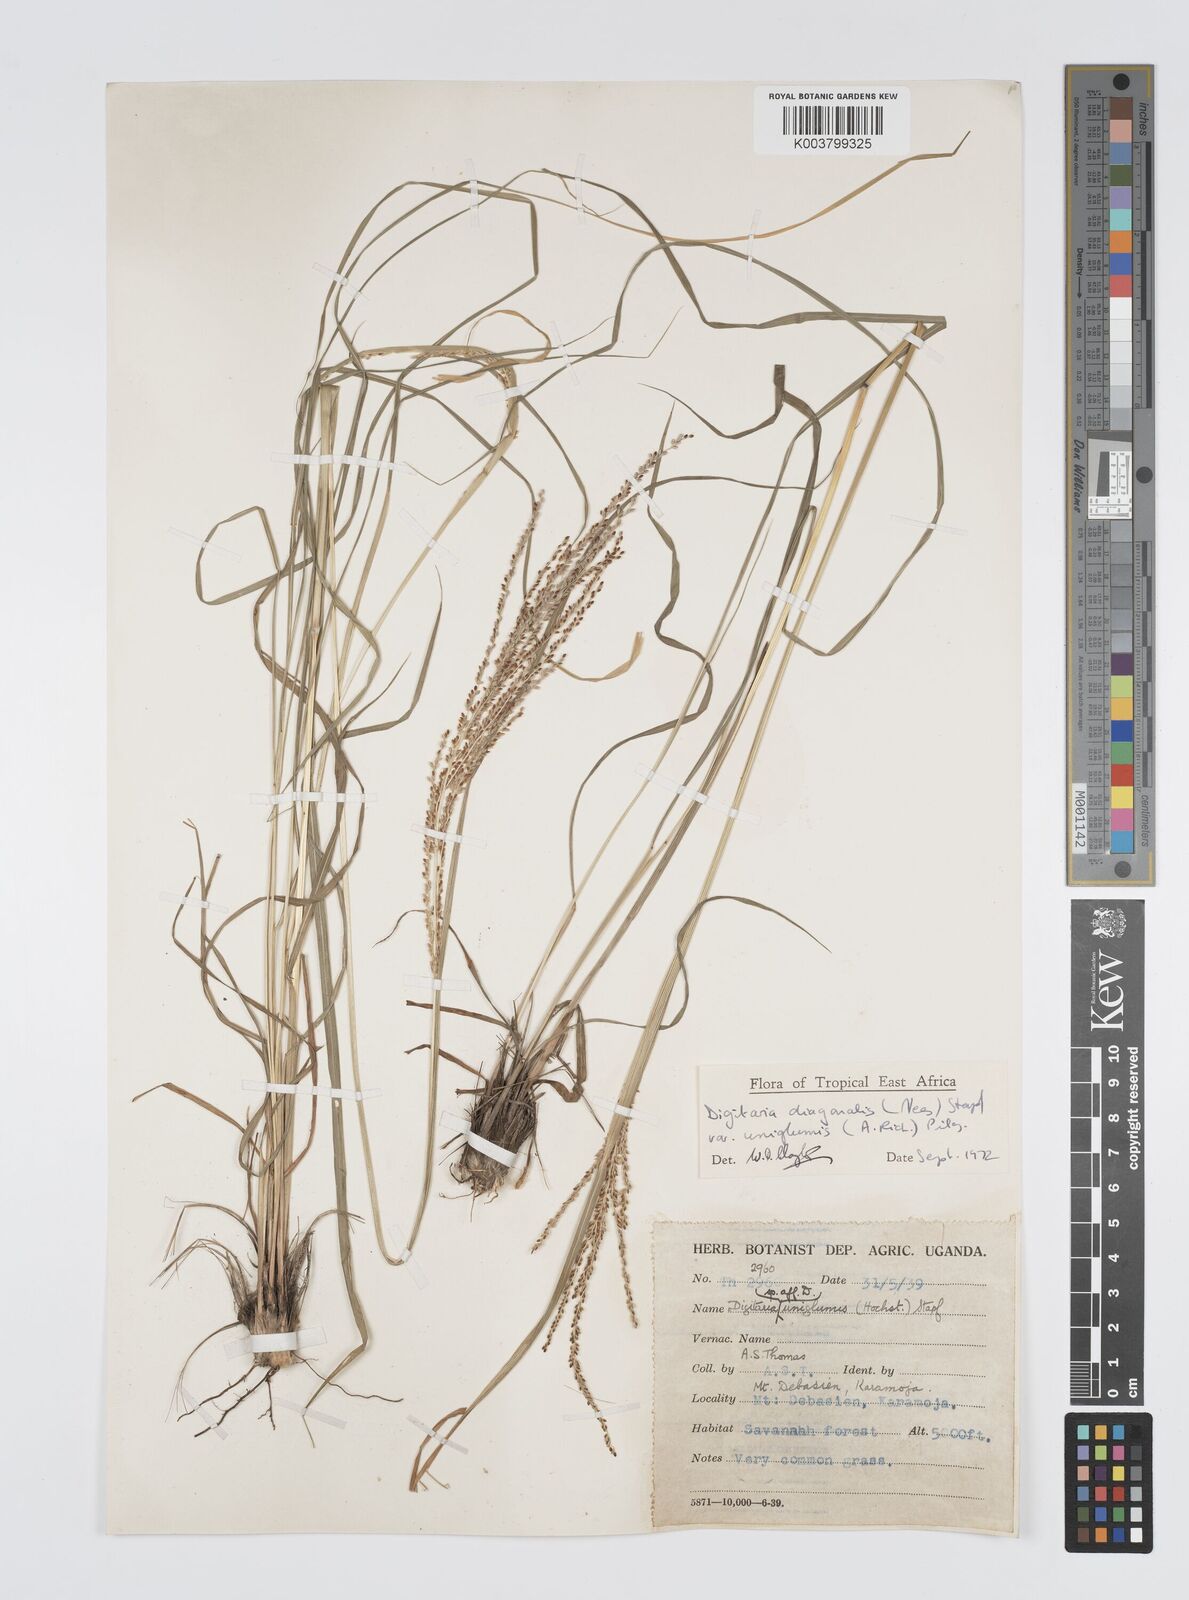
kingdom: Plantae
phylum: Tracheophyta
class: Liliopsida
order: Poales
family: Poaceae
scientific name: Poaceae
